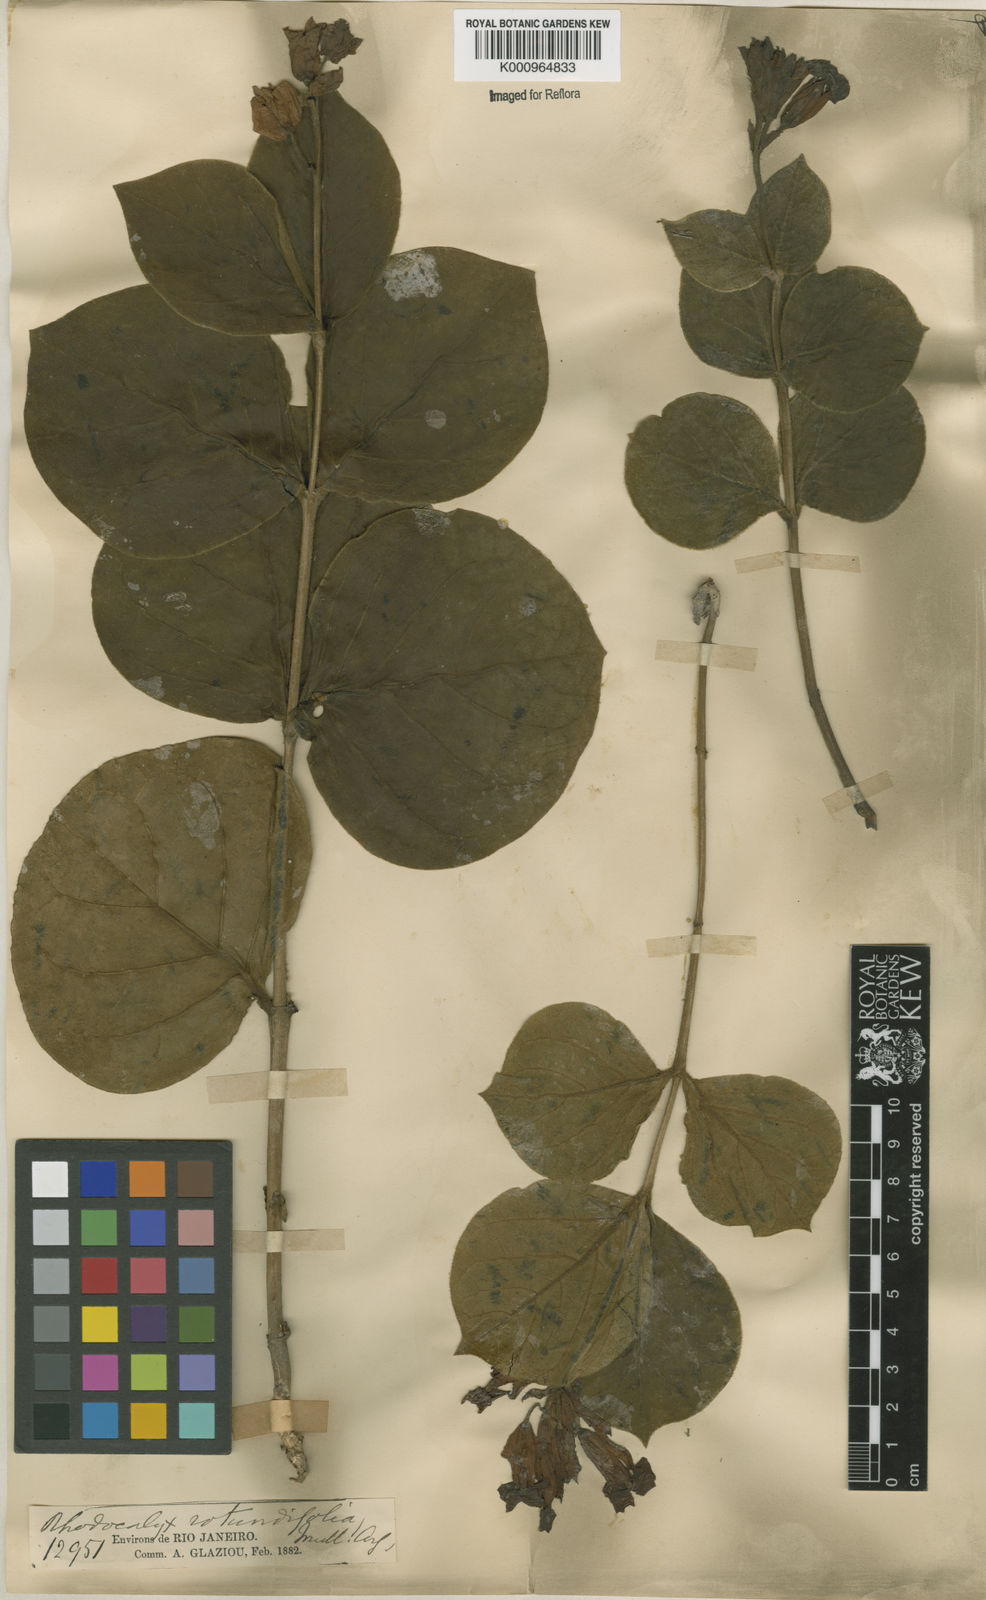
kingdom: Plantae
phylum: Tracheophyta
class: Magnoliopsida
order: Gentianales
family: Apocynaceae
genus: Rhodocalyx
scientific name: Rhodocalyx
